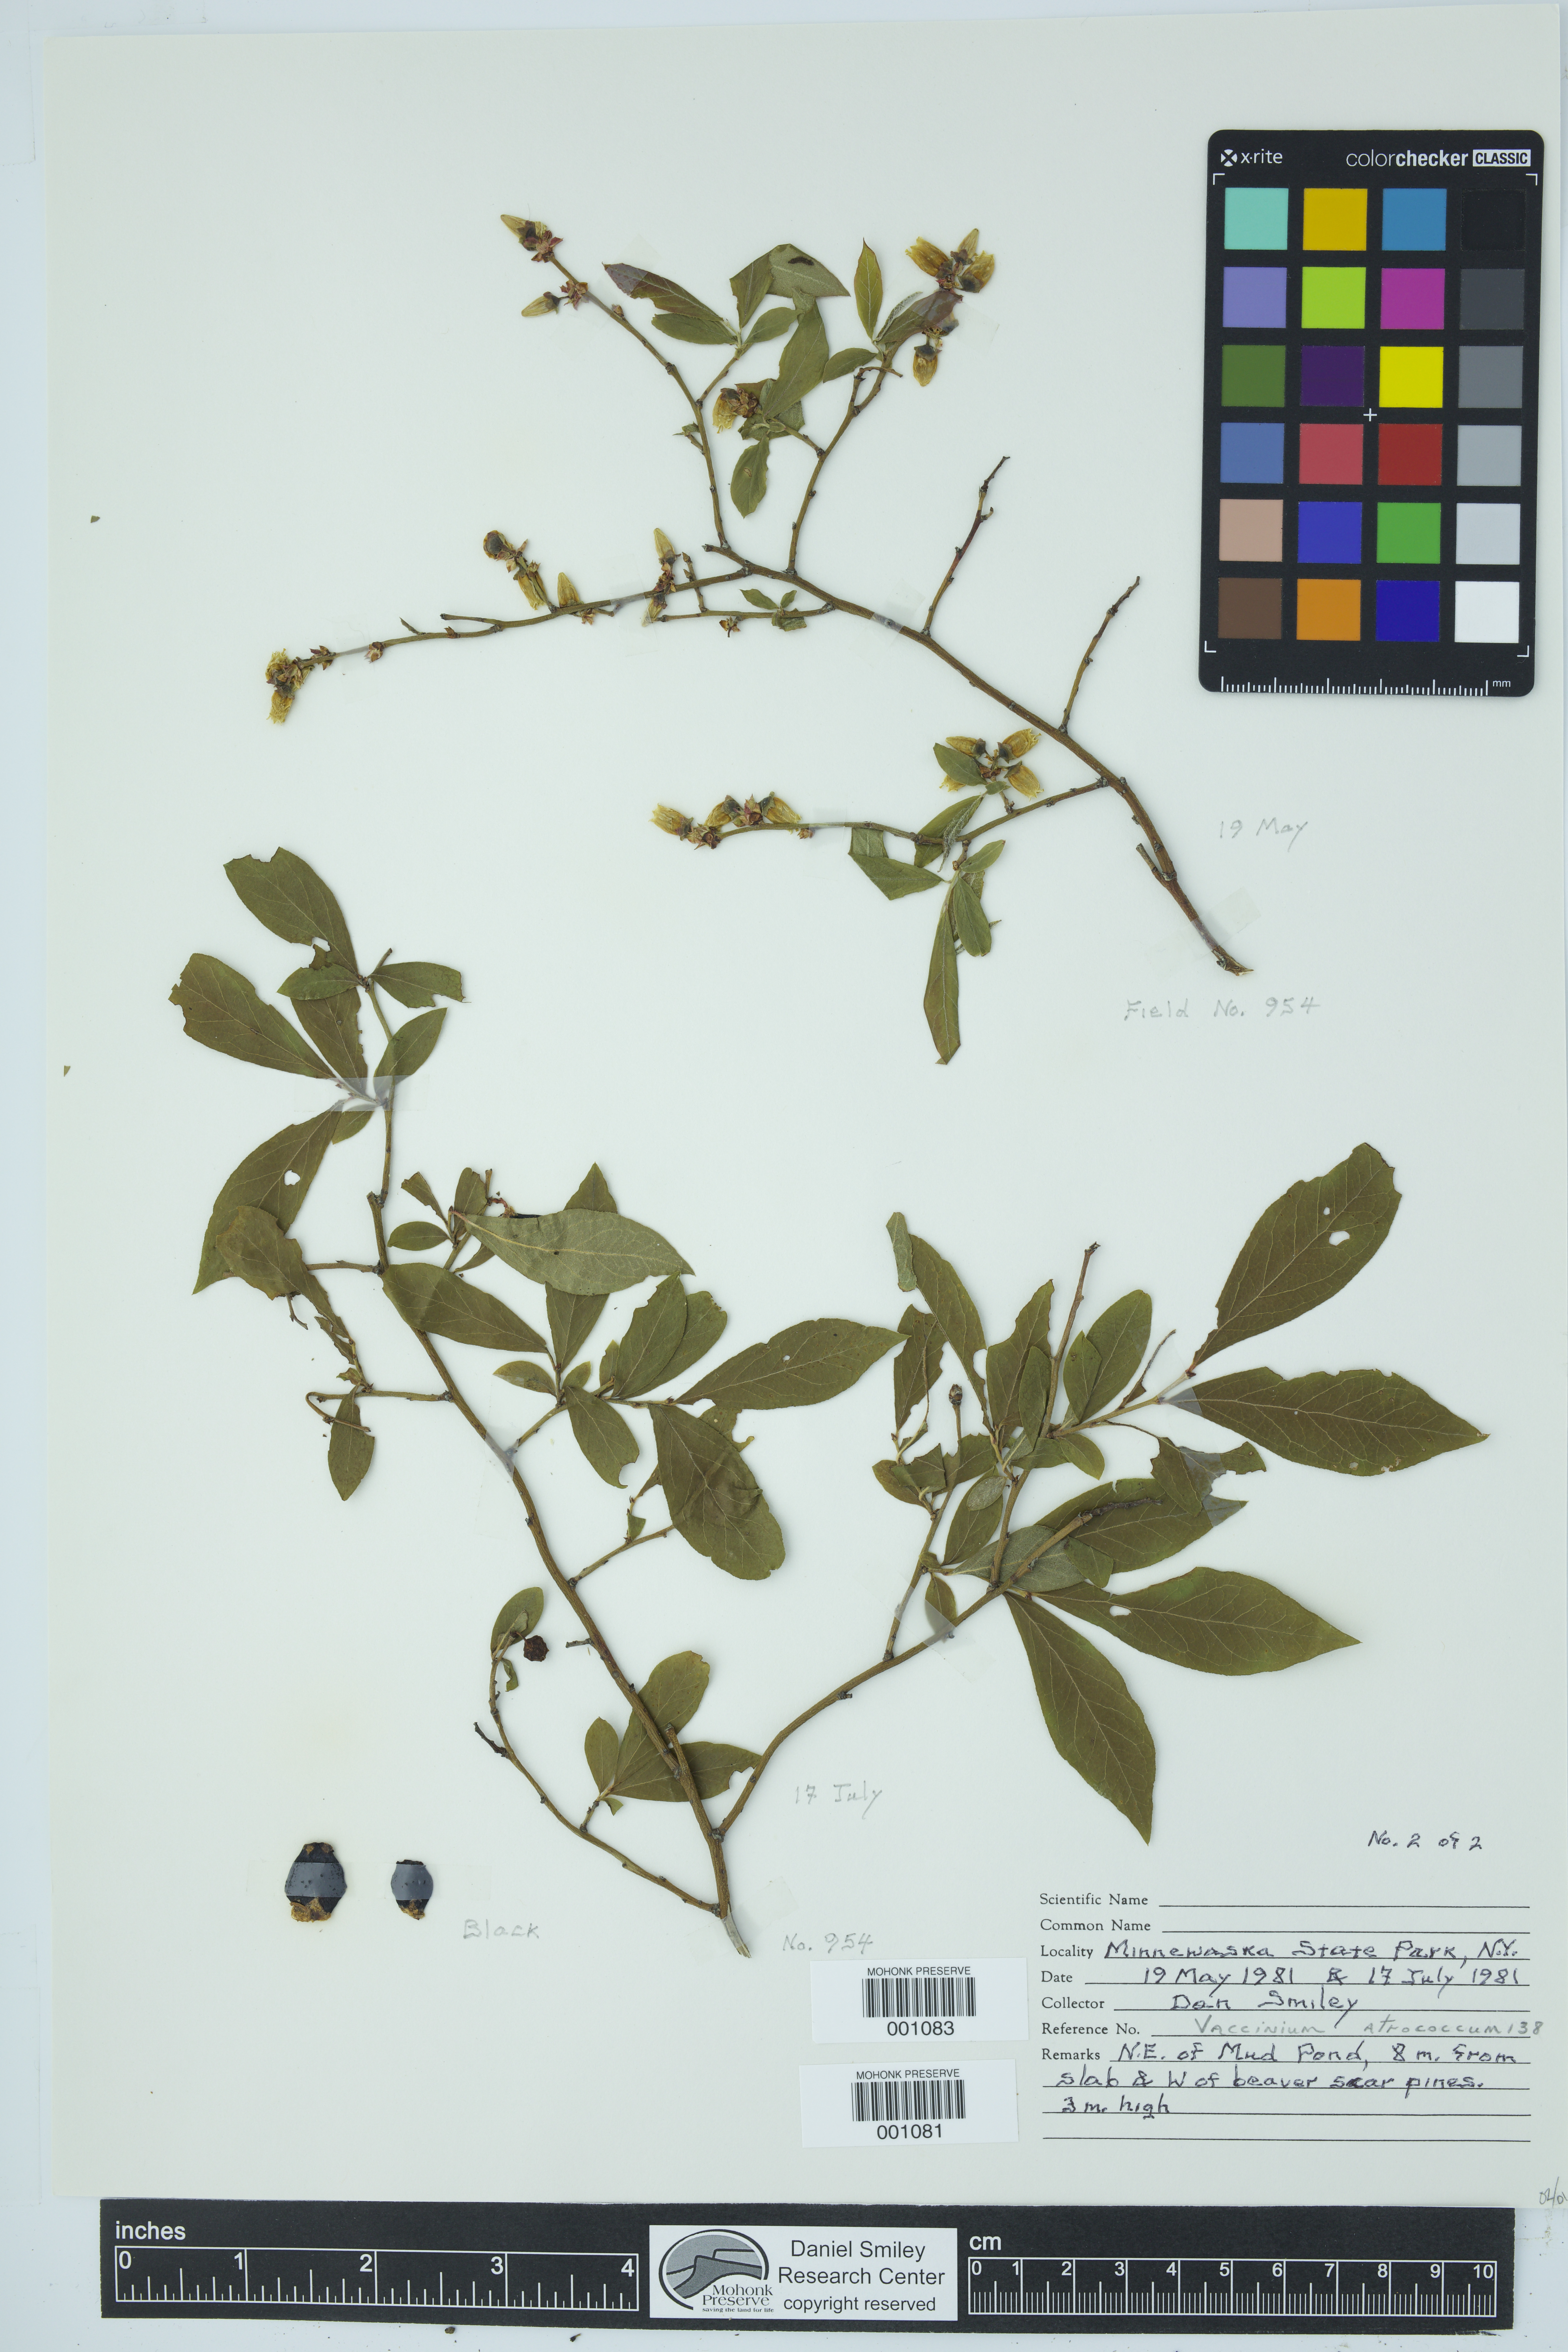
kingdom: Plantae
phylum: Tracheophyta
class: Magnoliopsida
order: Ericales
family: Ericaceae
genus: Vaccinium
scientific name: Vaccinium corymbosum
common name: Blueberry
